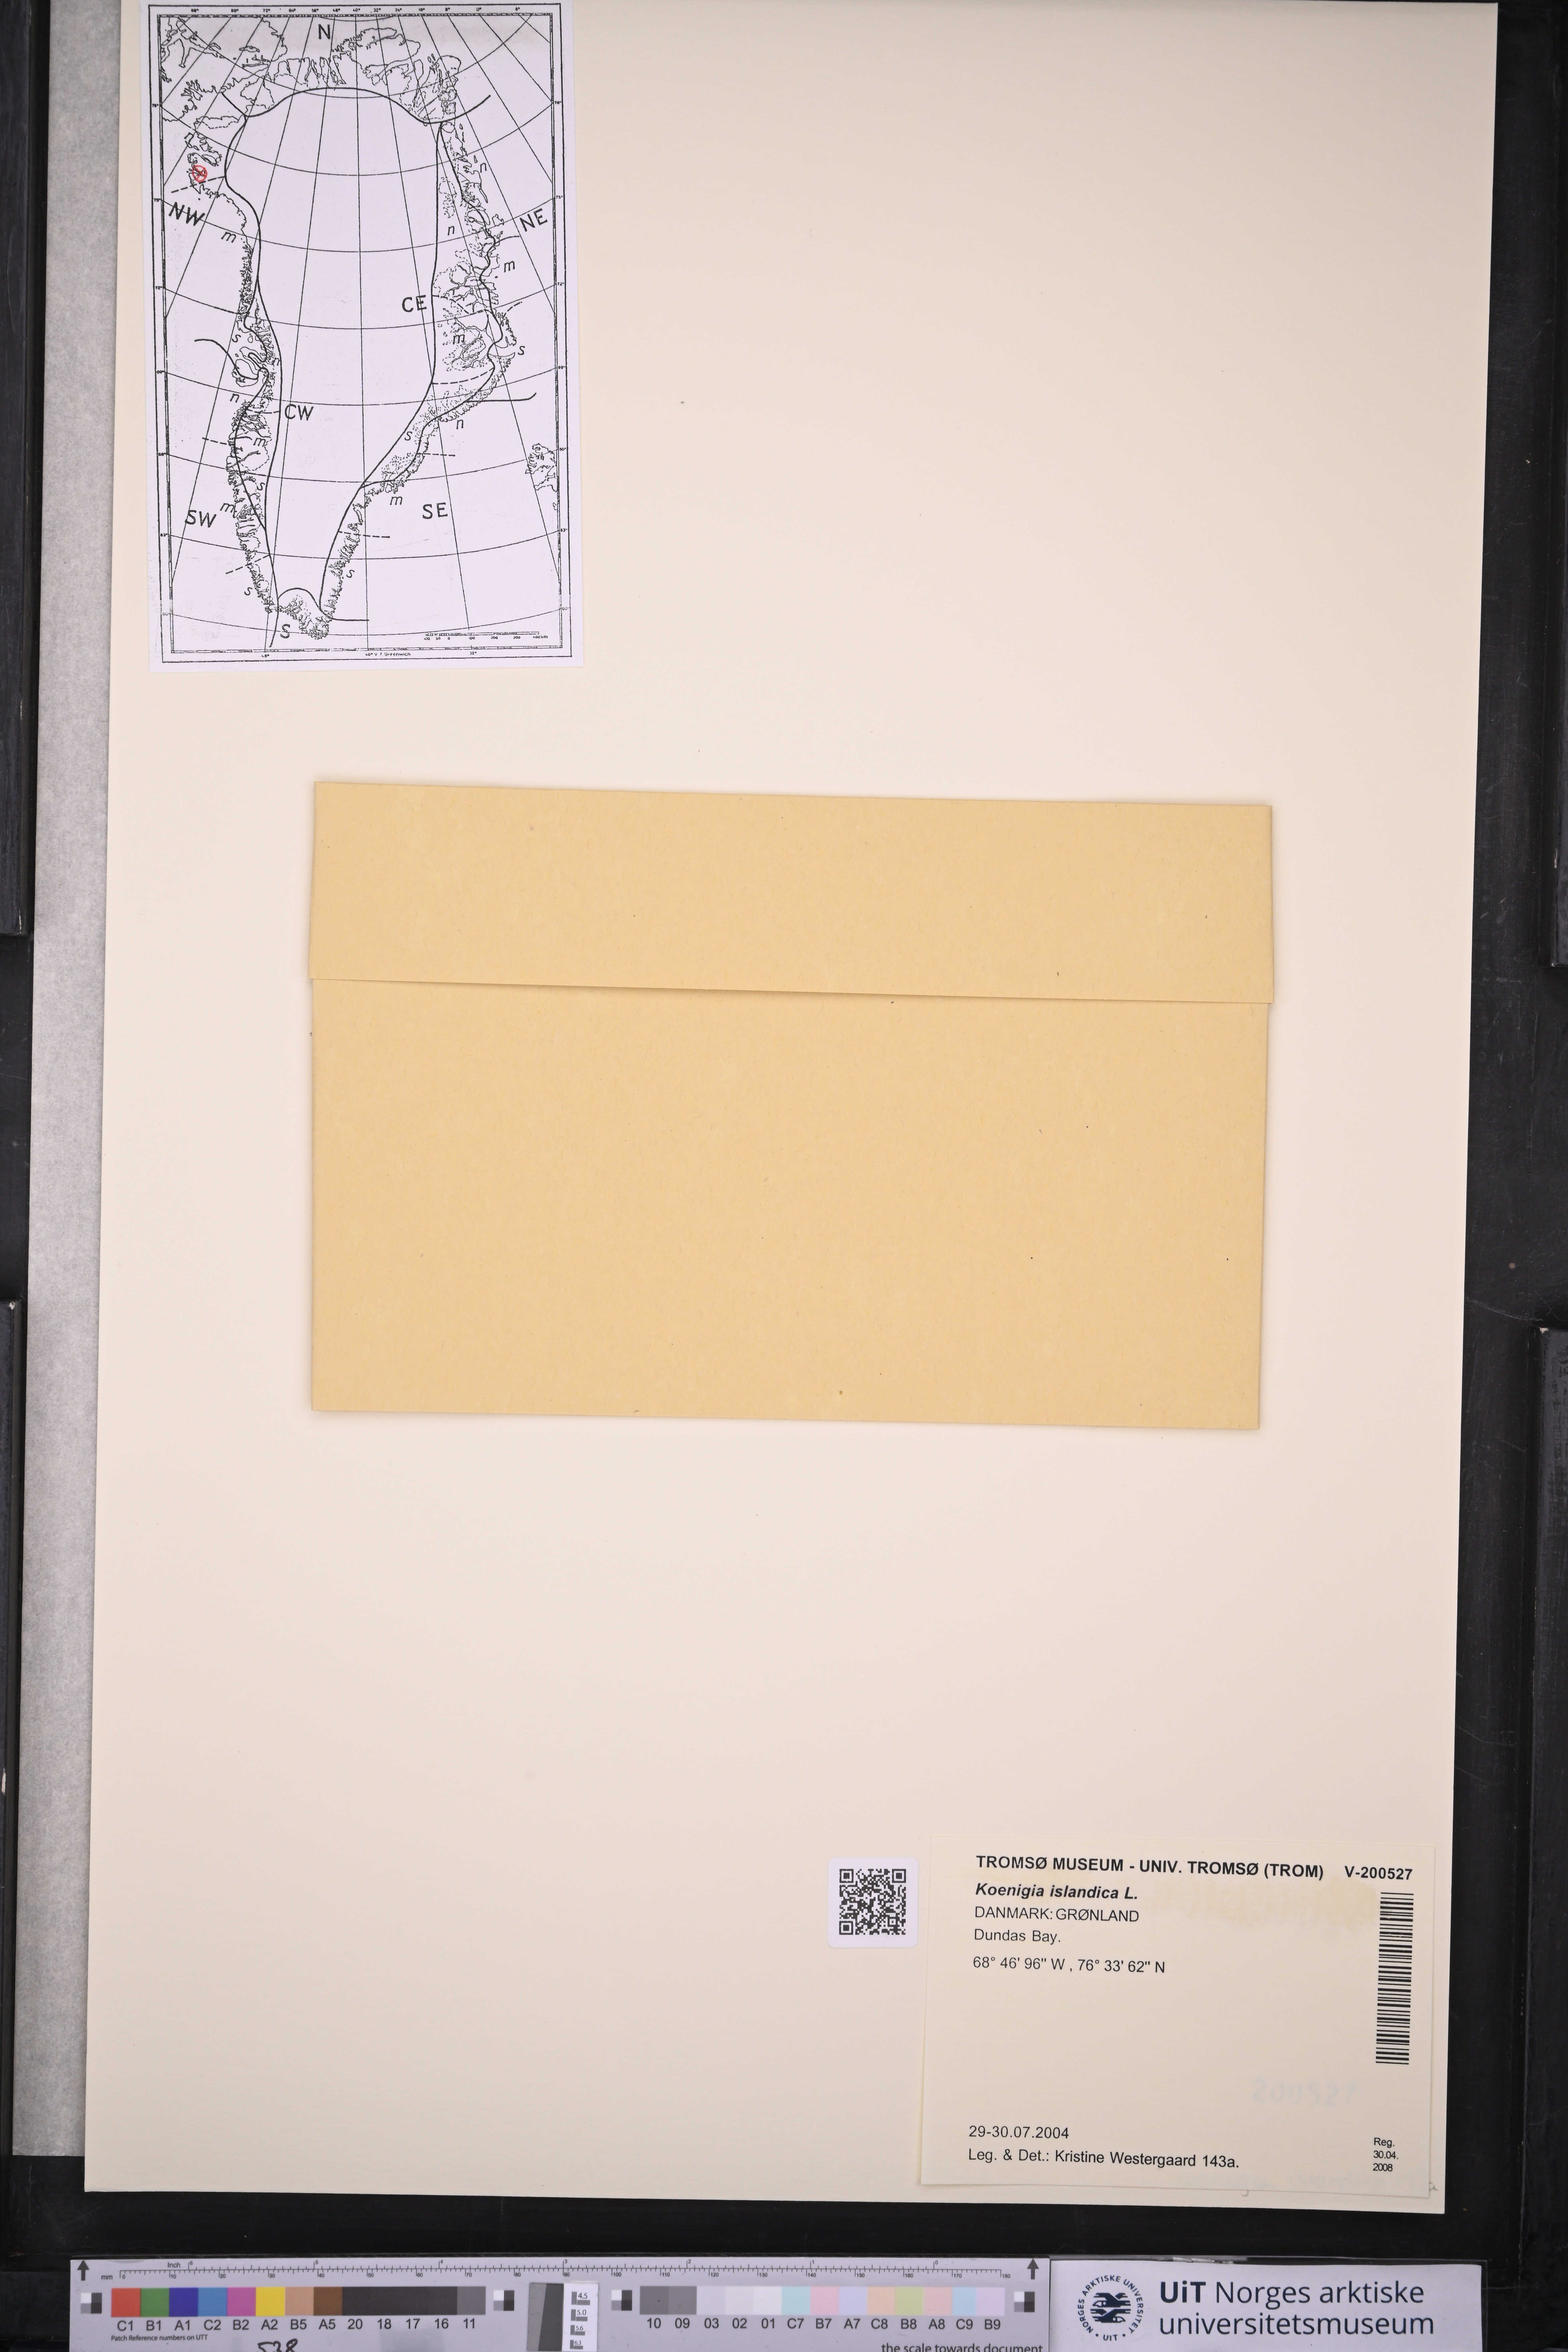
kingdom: Plantae
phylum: Tracheophyta
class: Magnoliopsida
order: Caryophyllales
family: Polygonaceae
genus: Koenigia
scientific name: Koenigia islandica
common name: Iceland-purslane
